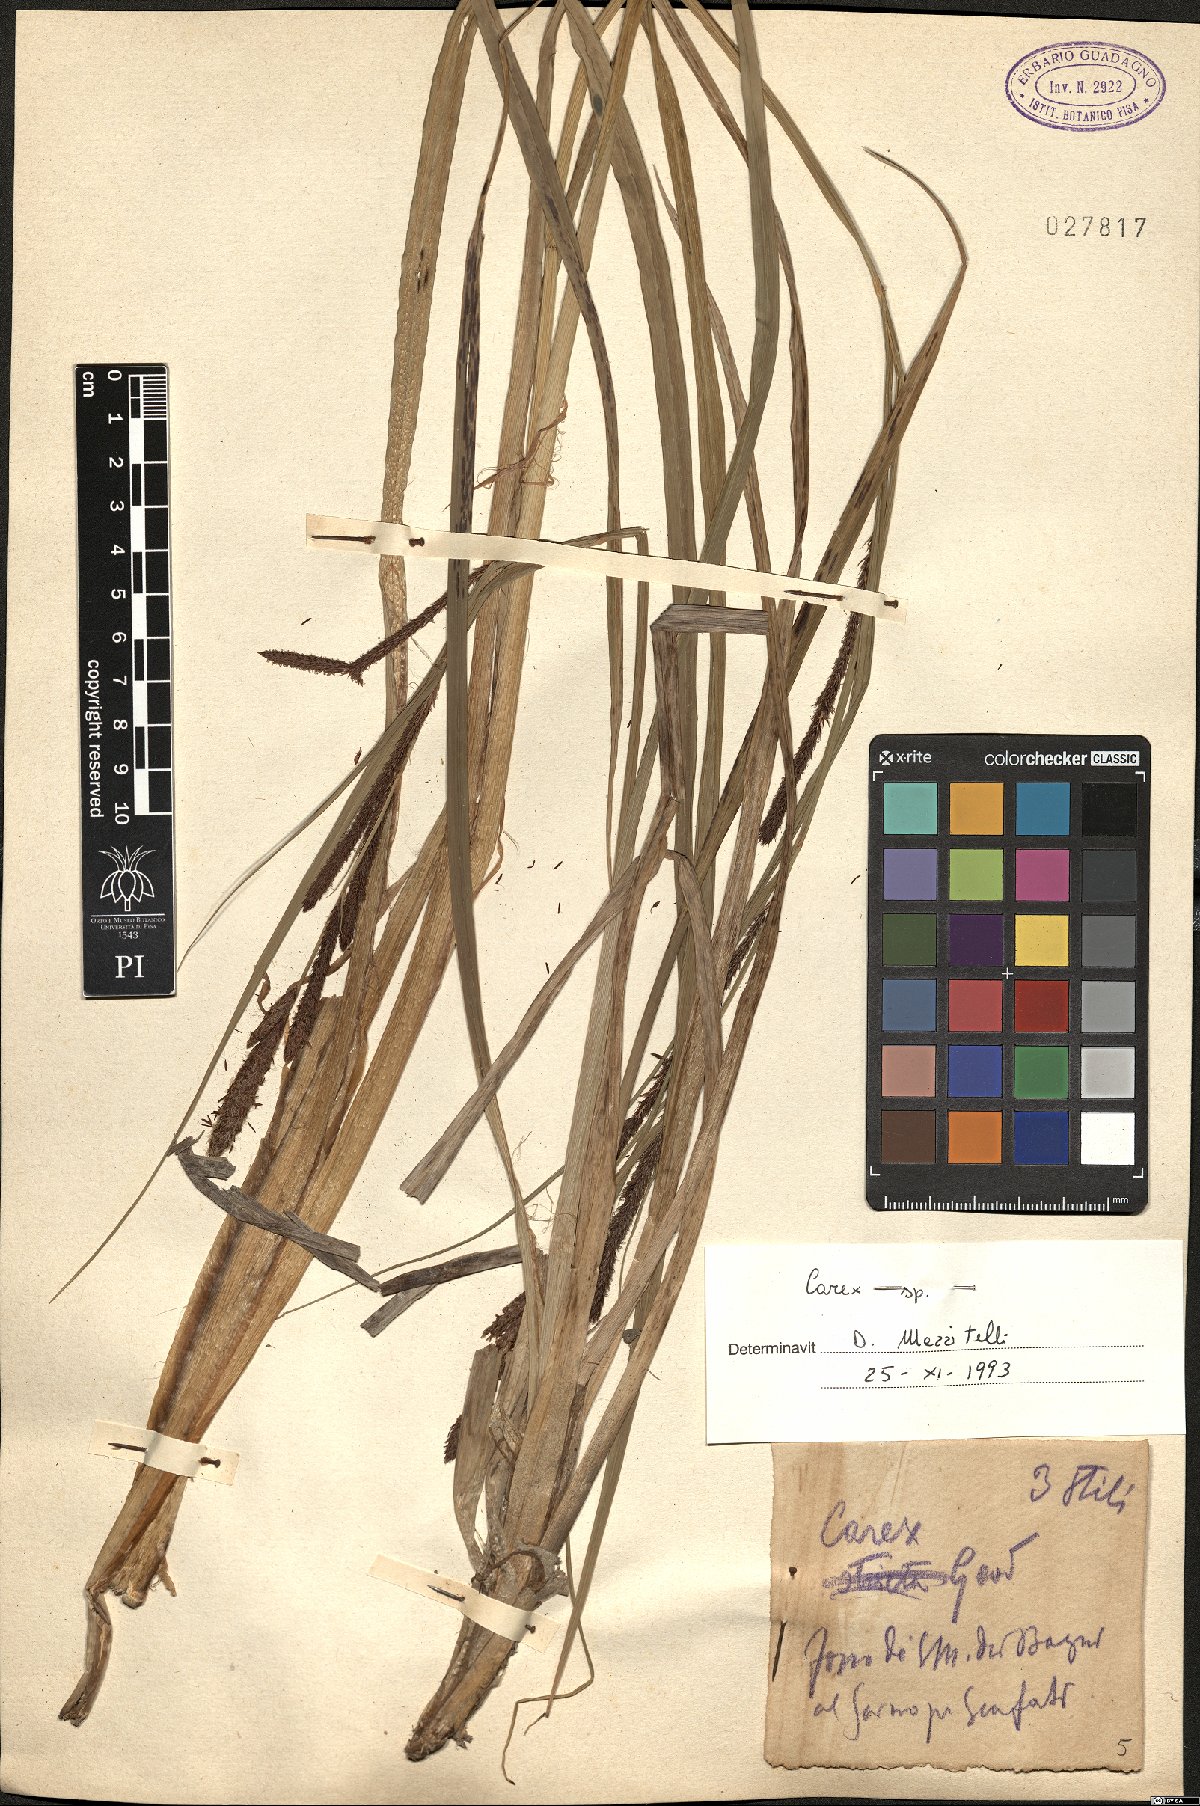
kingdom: Plantae
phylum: Tracheophyta
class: Liliopsida
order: Poales
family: Cyperaceae
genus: Carex
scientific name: Carex
